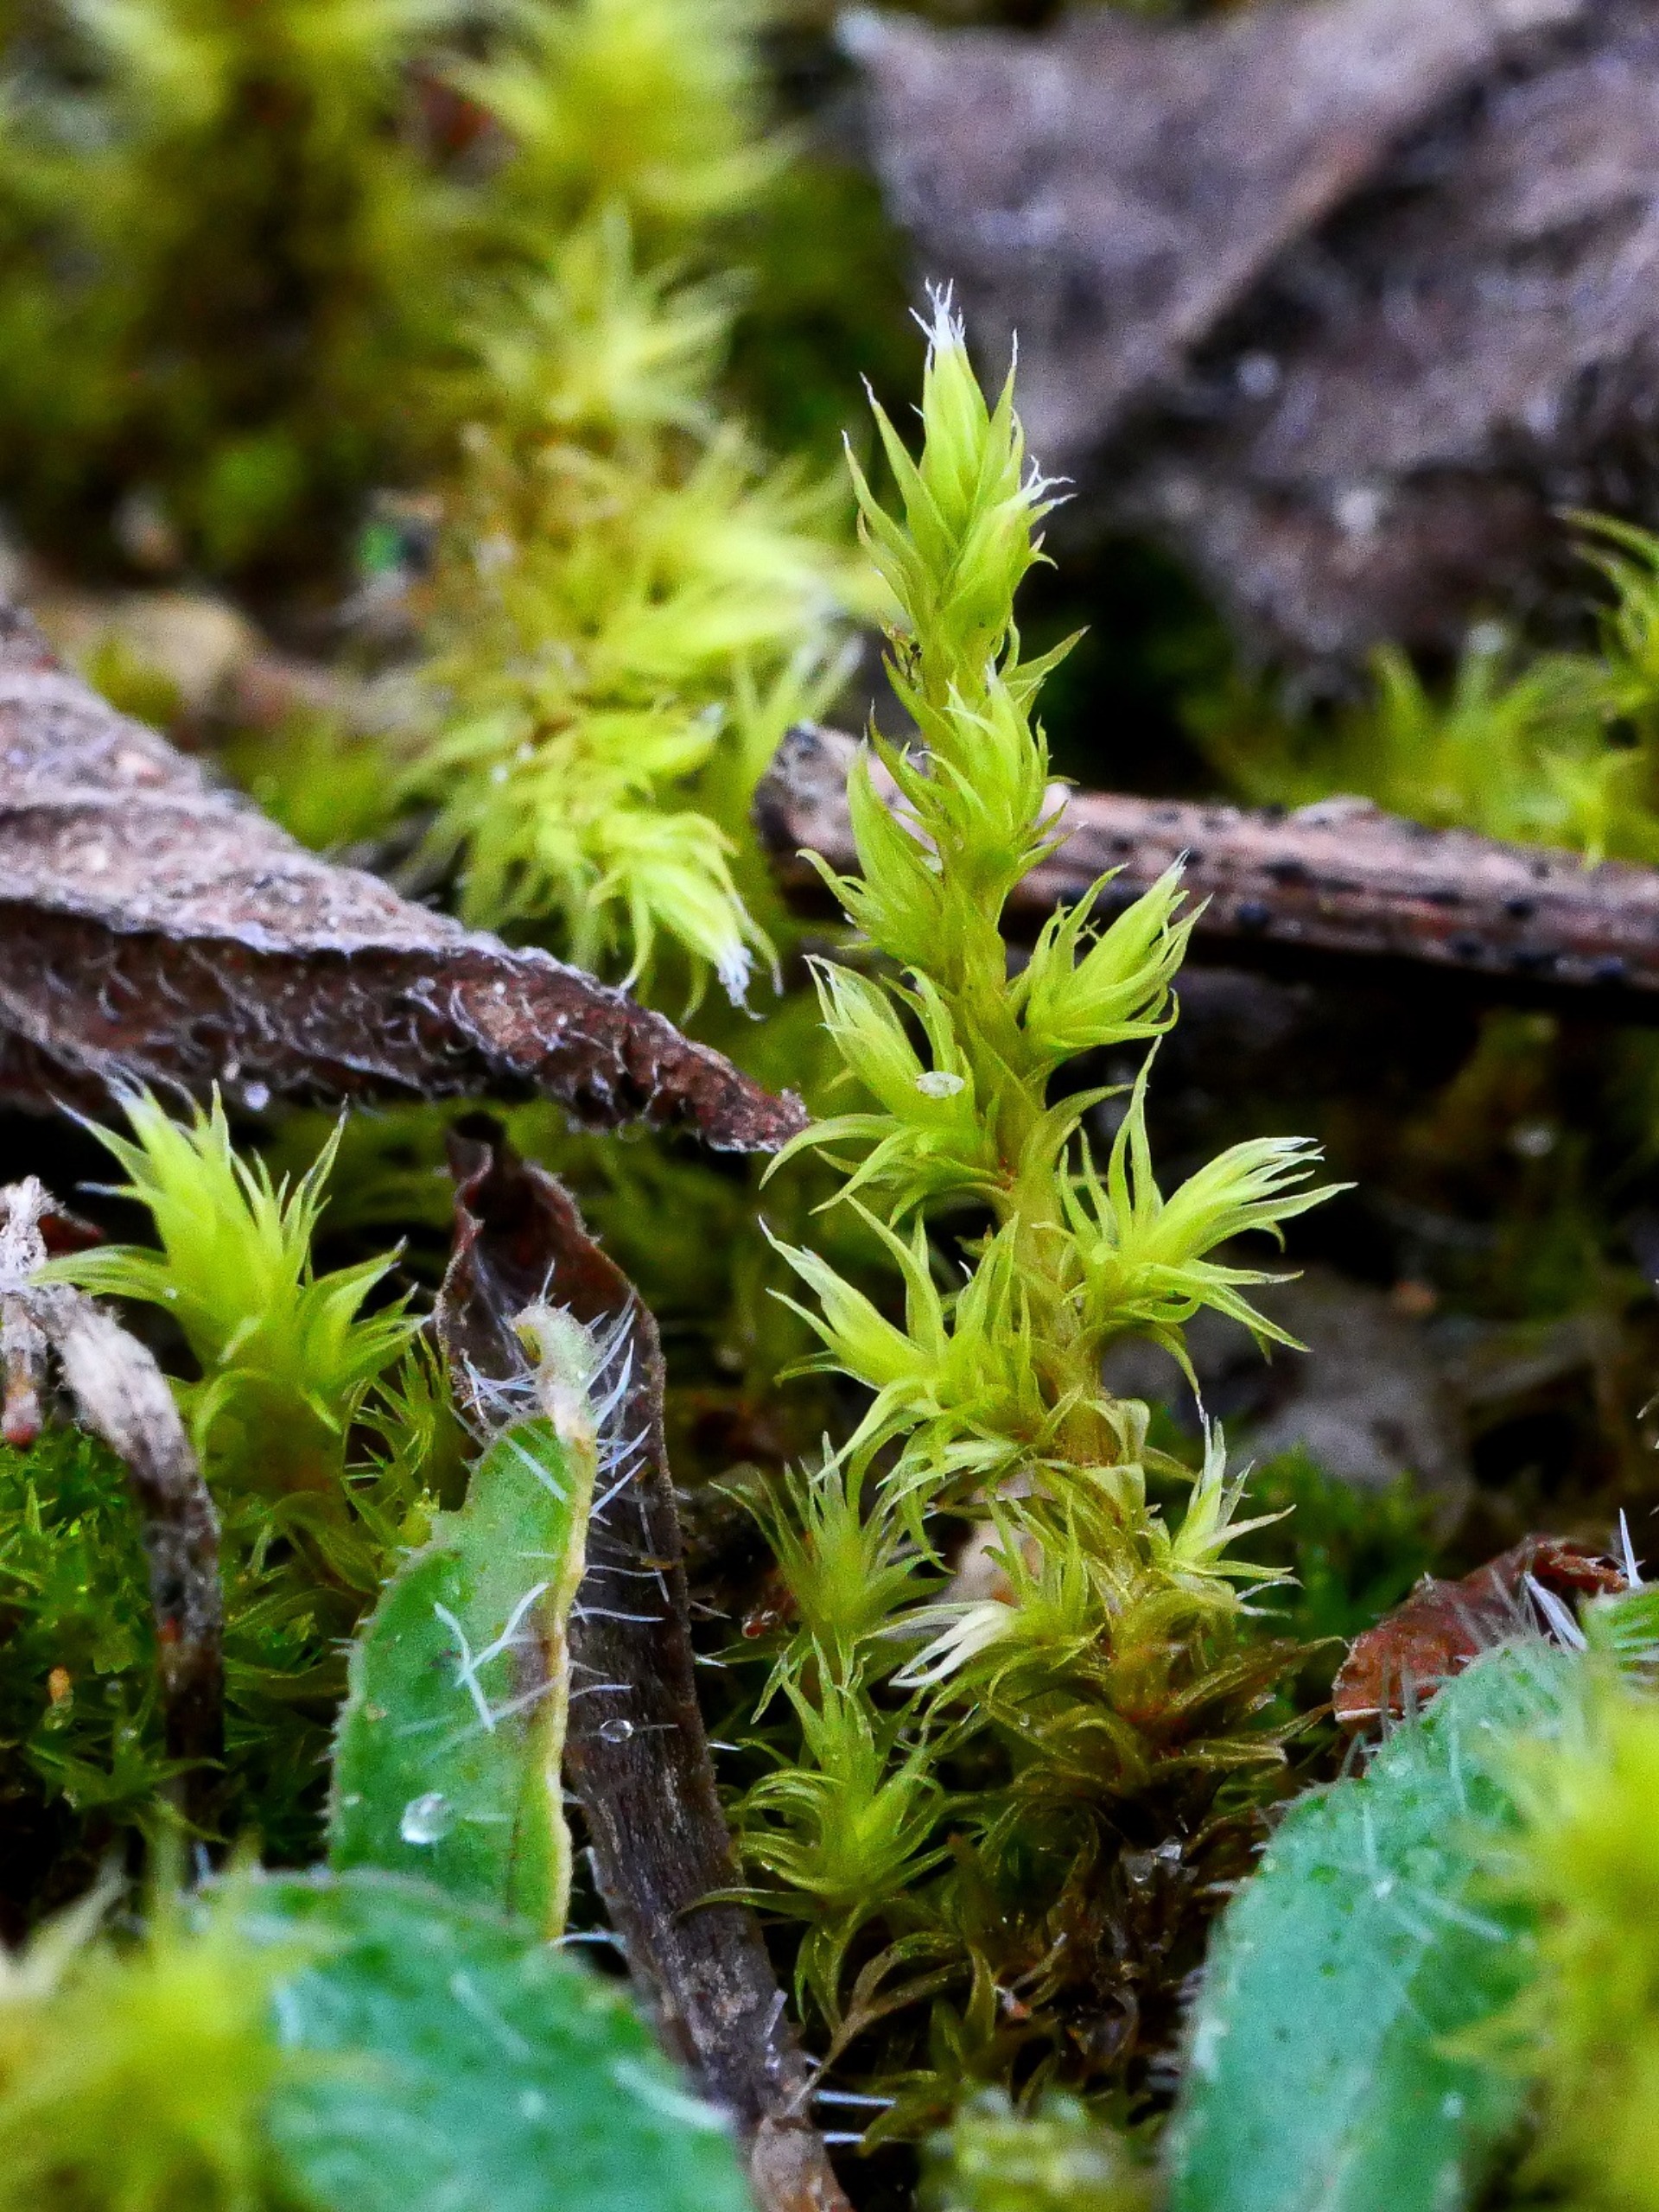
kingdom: Plantae
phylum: Bryophyta
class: Bryopsida
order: Grimmiales
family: Grimmiaceae
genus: Niphotrichum
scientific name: Niphotrichum ericoides
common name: Tætgrenet børstemos
